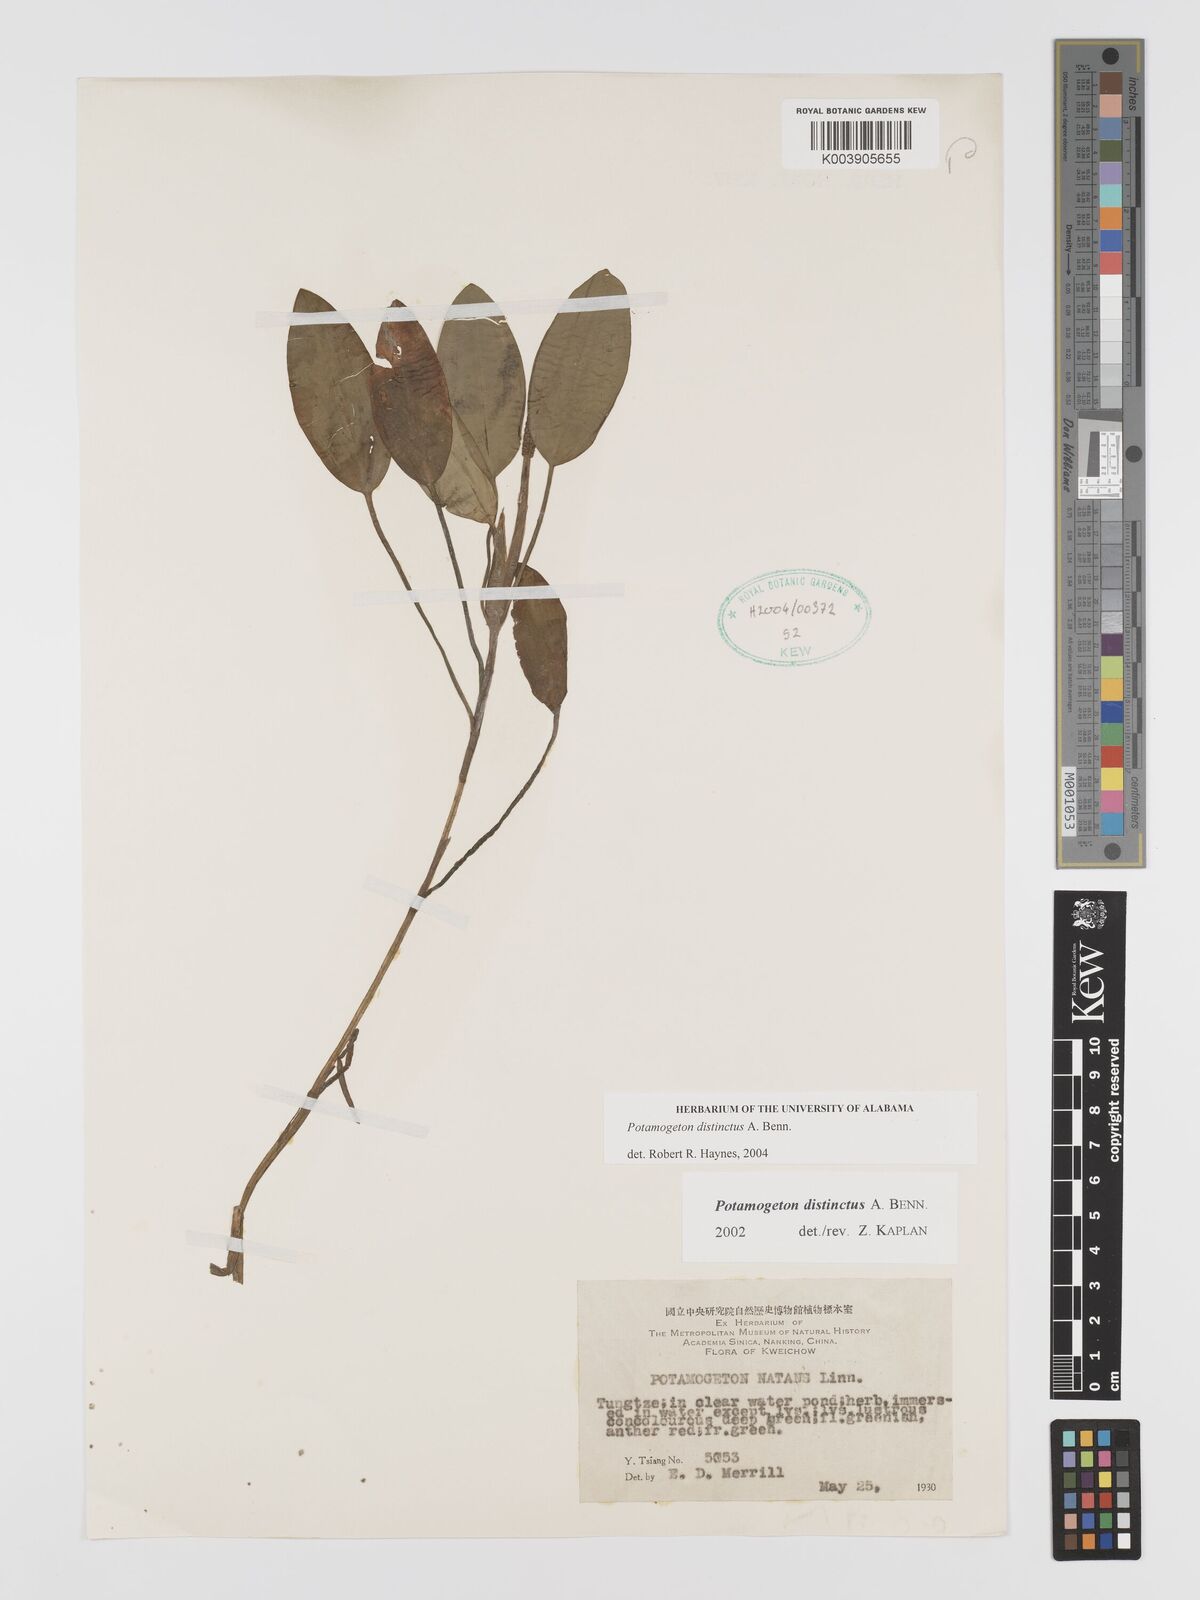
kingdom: Plantae
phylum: Tracheophyta
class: Liliopsida
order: Alismatales
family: Potamogetonaceae
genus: Potamogeton
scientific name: Potamogeton distinctus
